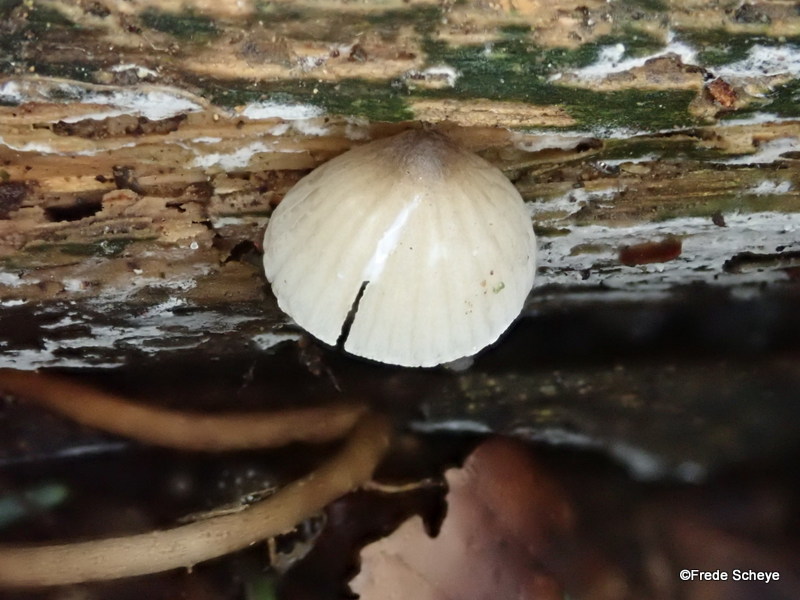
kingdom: Fungi
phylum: Basidiomycota
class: Agaricomycetes
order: Agaricales
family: Mycenaceae
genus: Mycena
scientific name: Mycena galopus
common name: hvidmælket huesvamp
